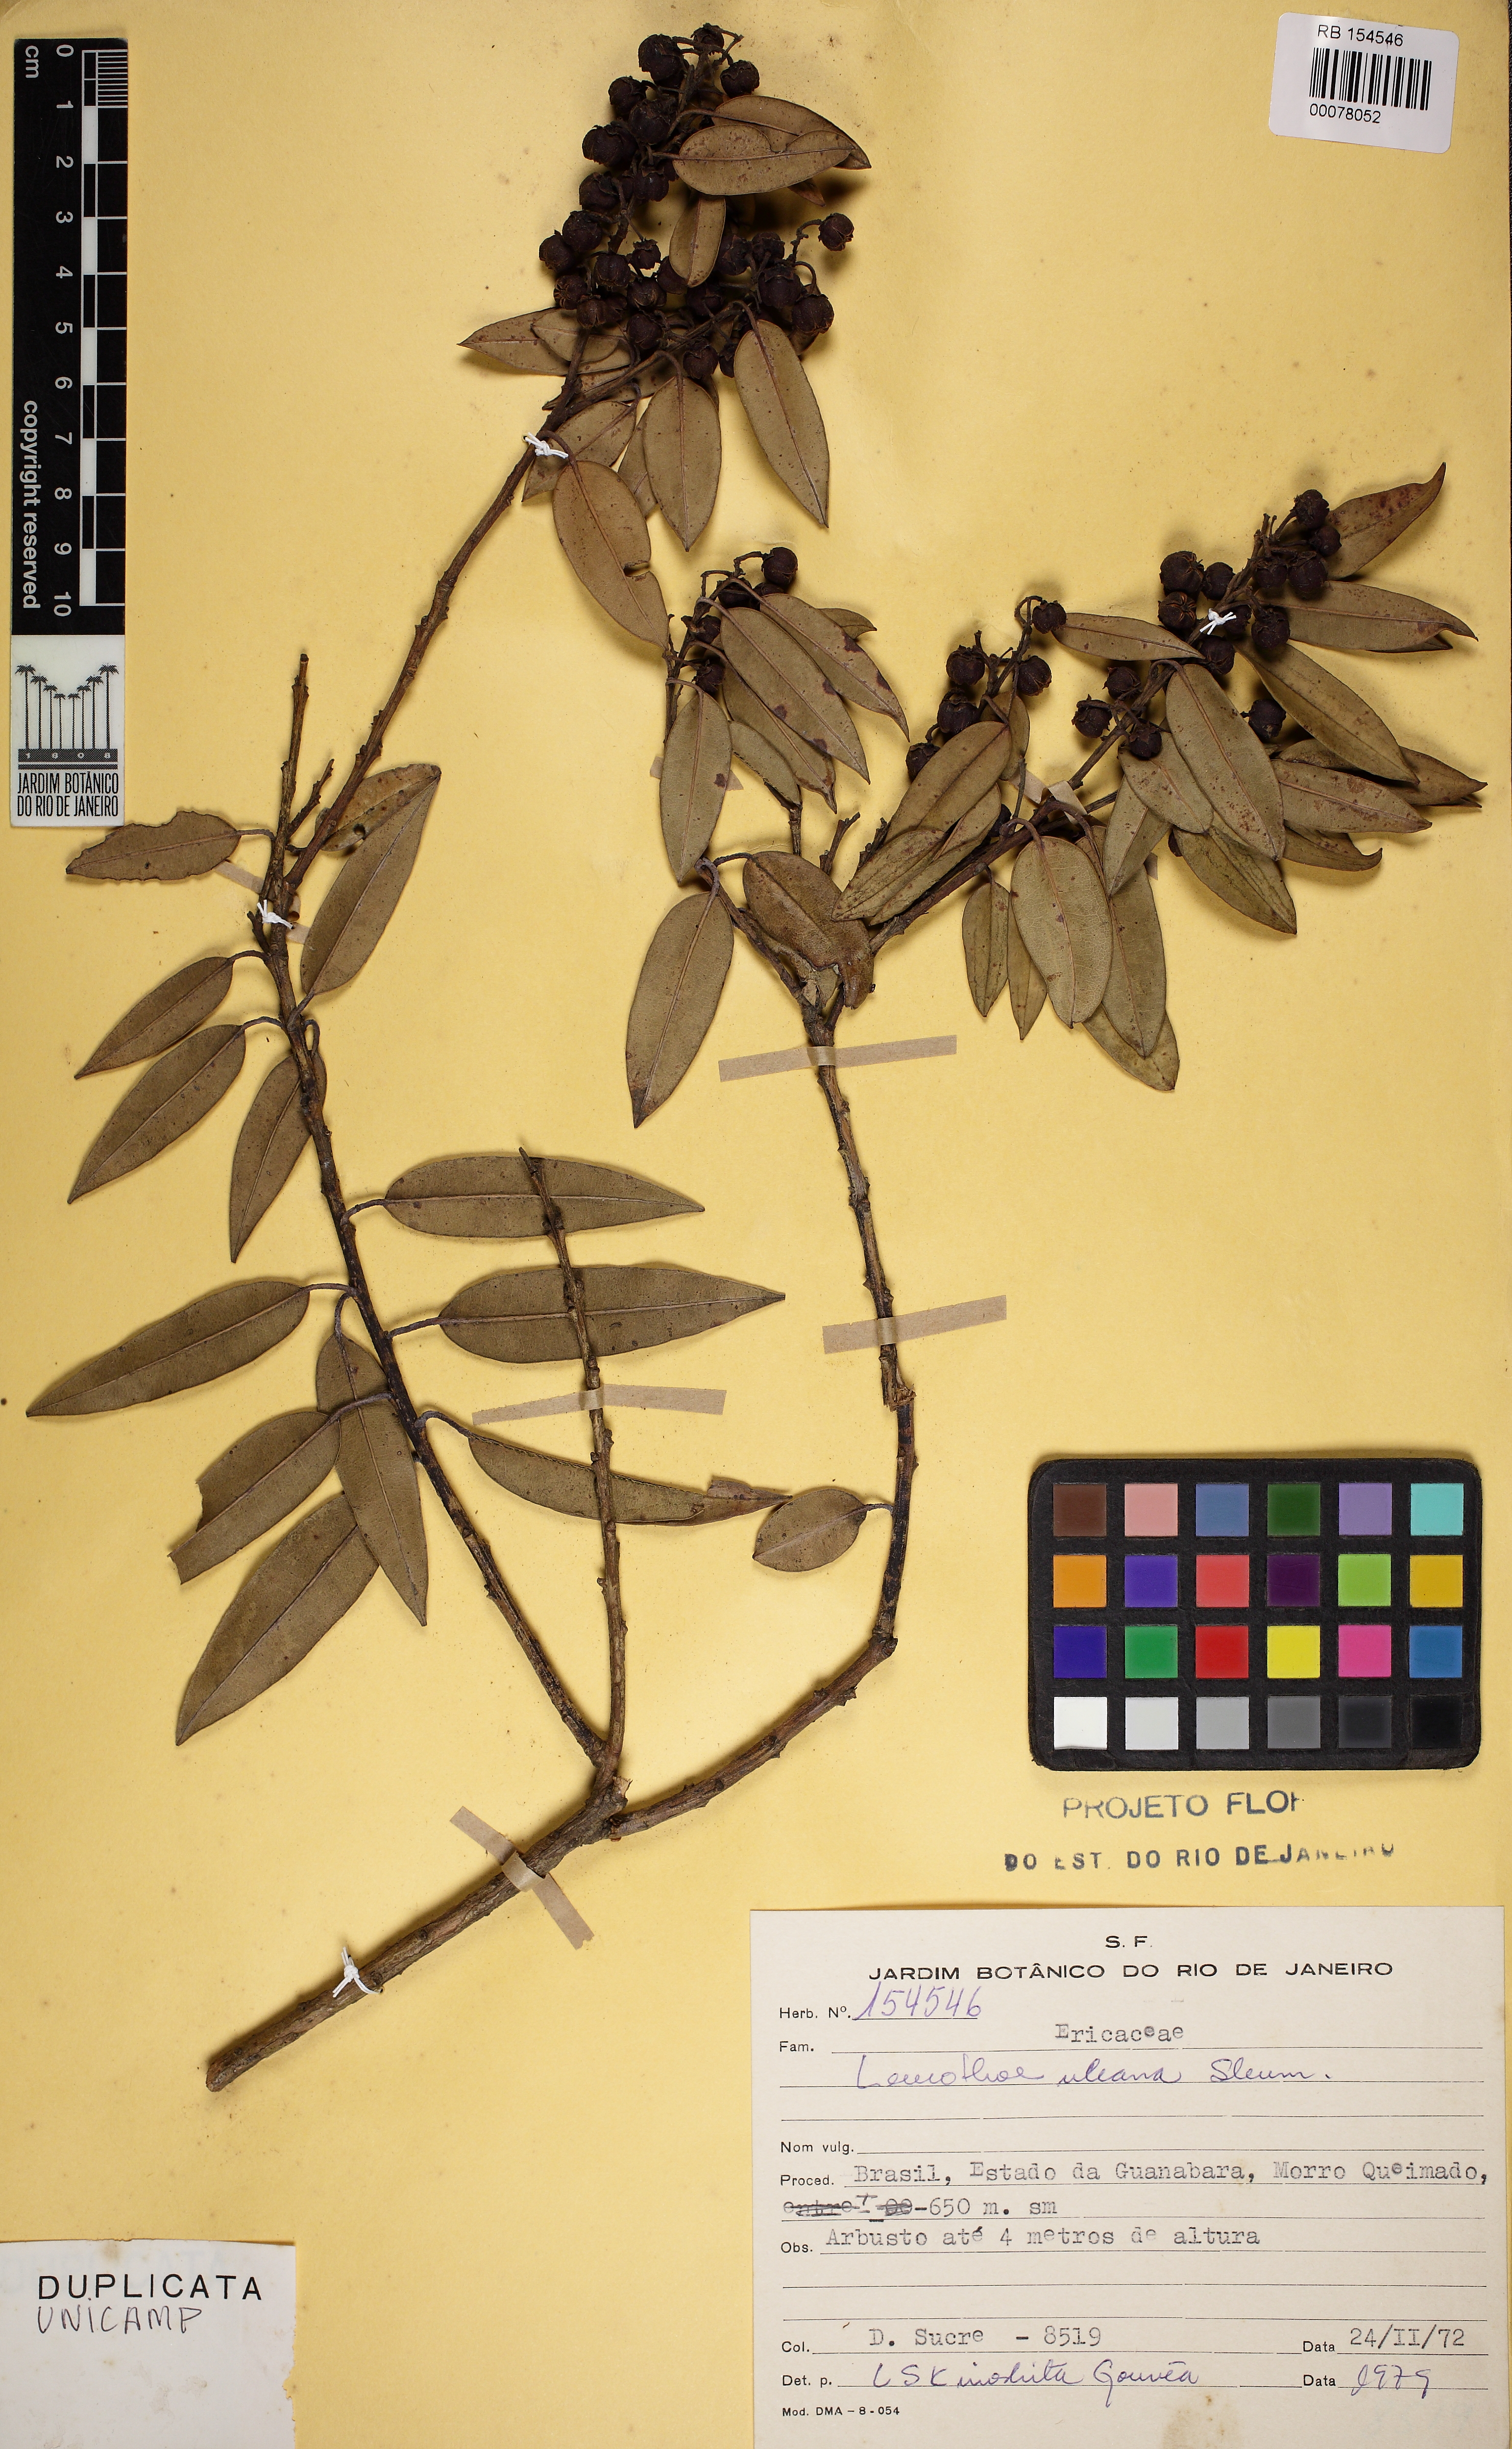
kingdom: Plantae
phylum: Tracheophyta
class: Magnoliopsida
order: Ericales
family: Ericaceae
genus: Agarista
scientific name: Agarista uleana
